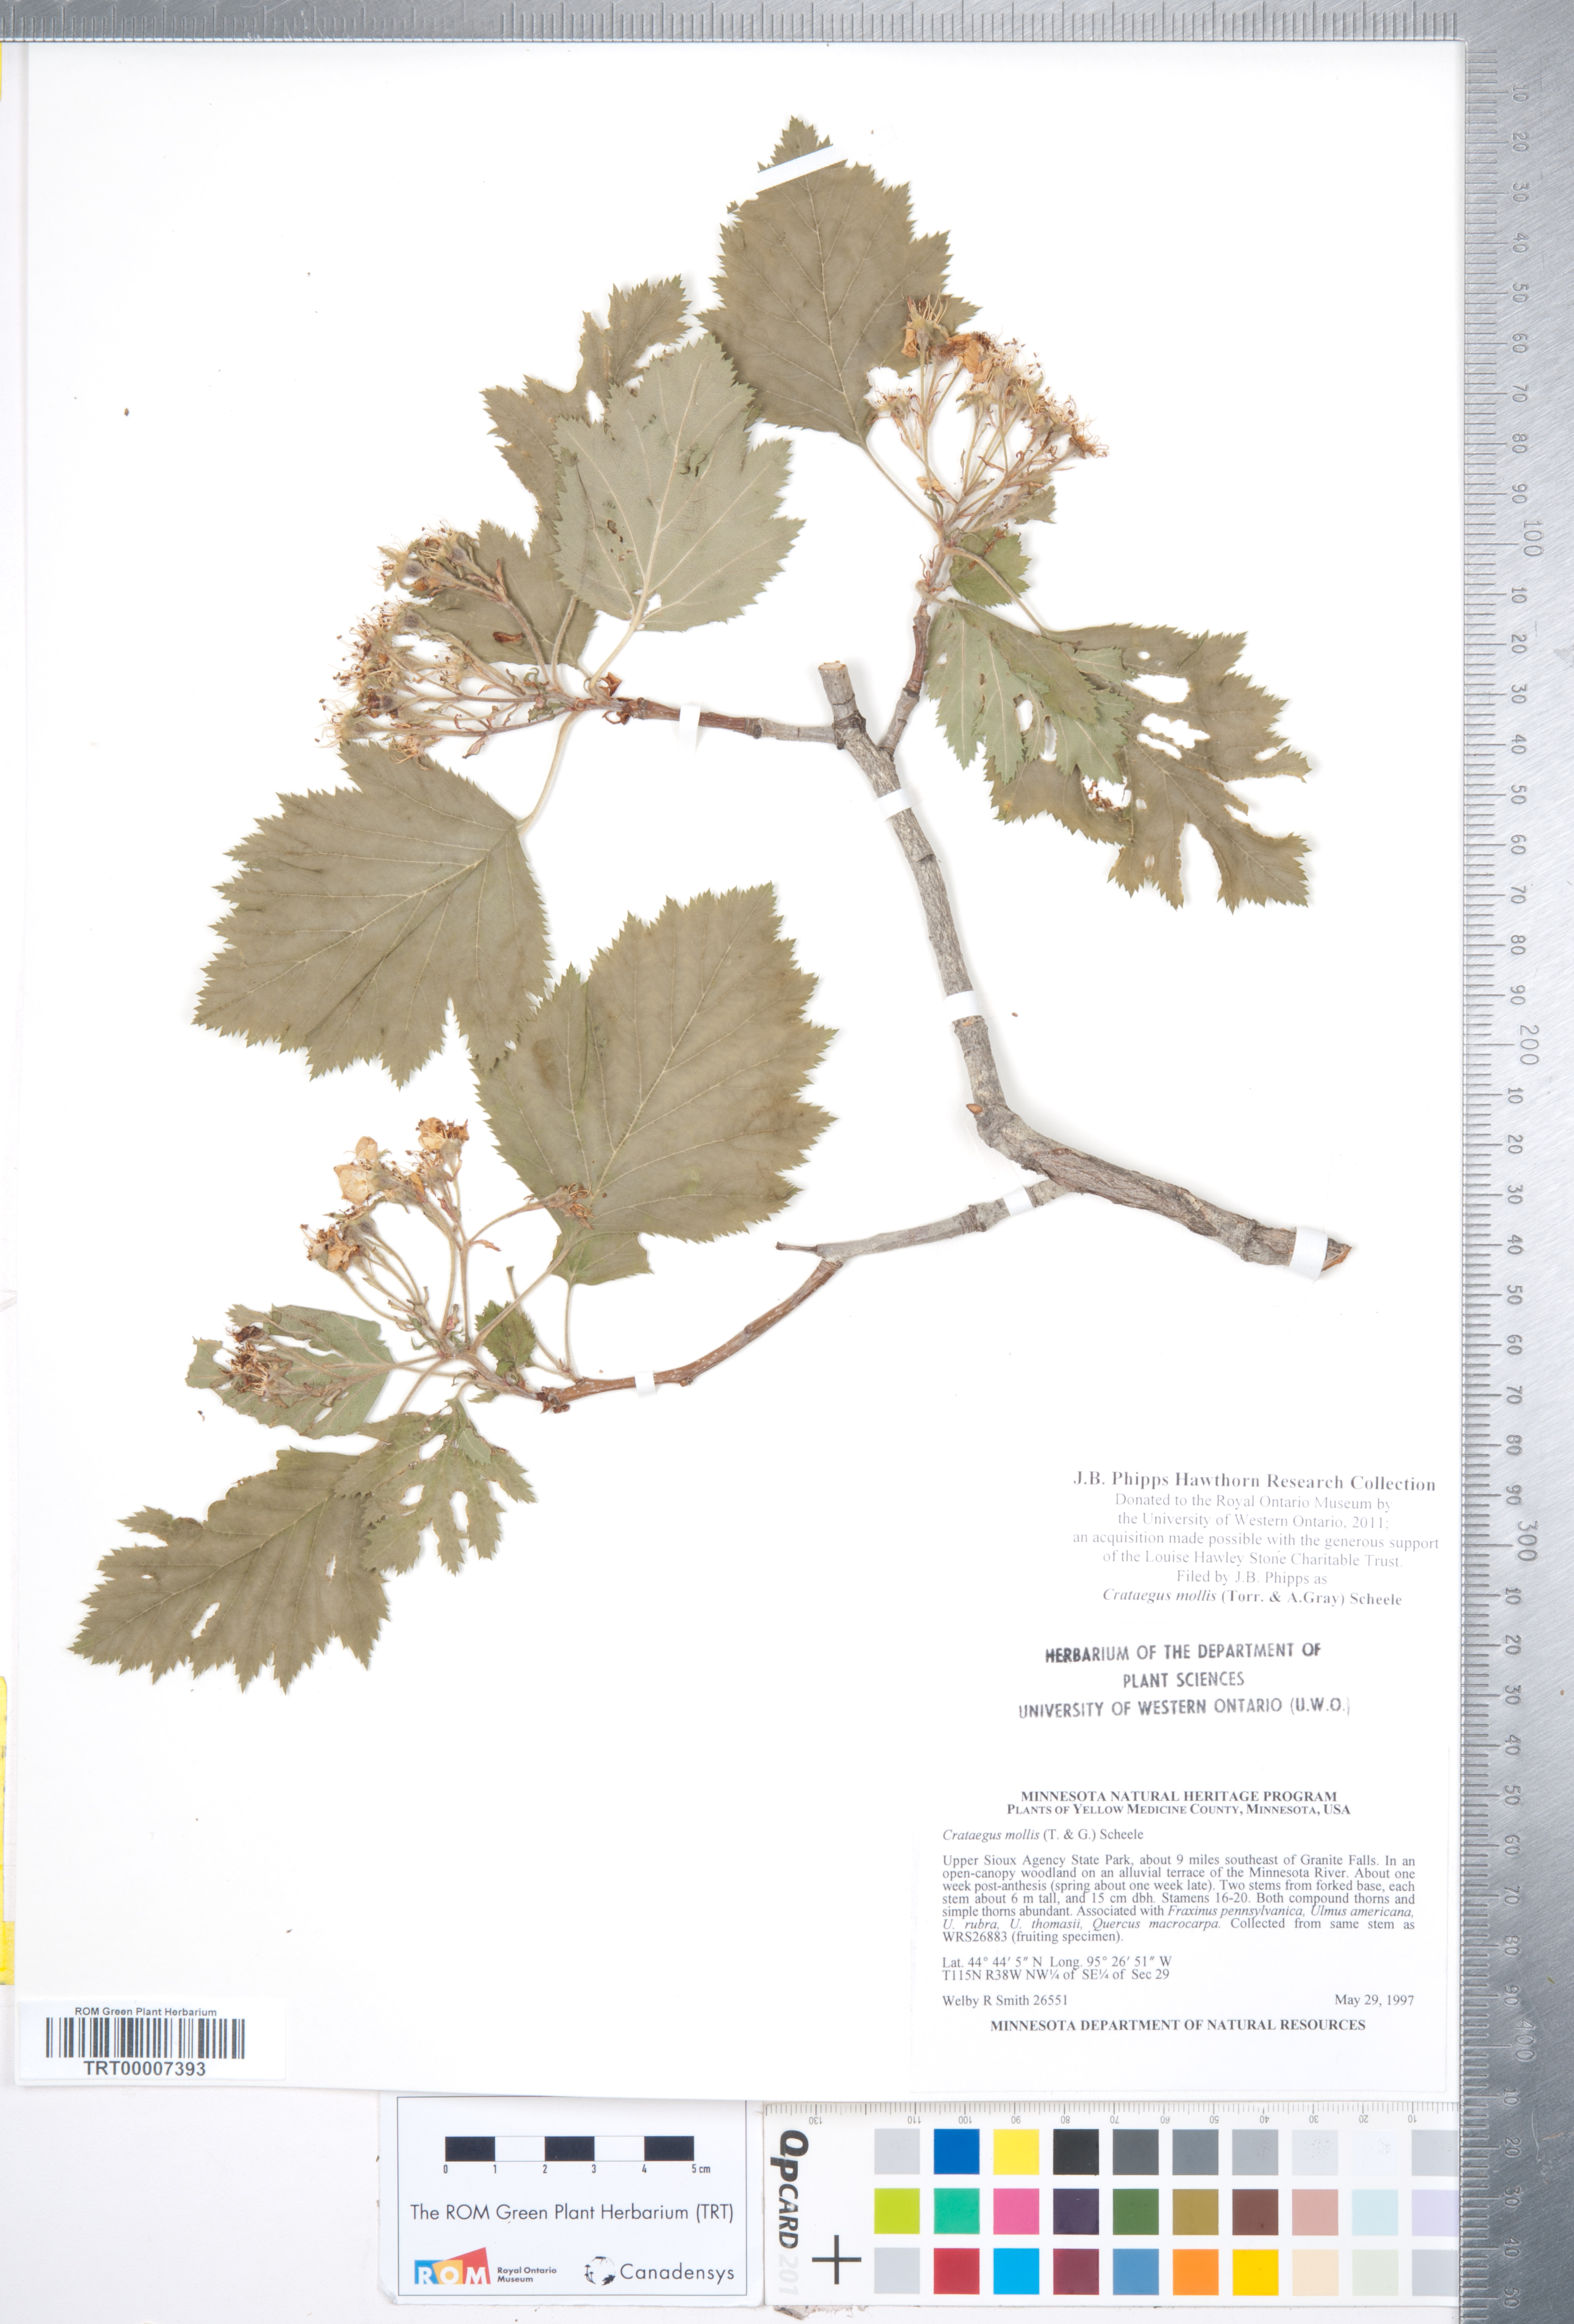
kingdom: Plantae
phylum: Tracheophyta
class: Magnoliopsida
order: Rosales
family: Rosaceae
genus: Crataegus
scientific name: Crataegus mollis
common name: Downy hawthorn
